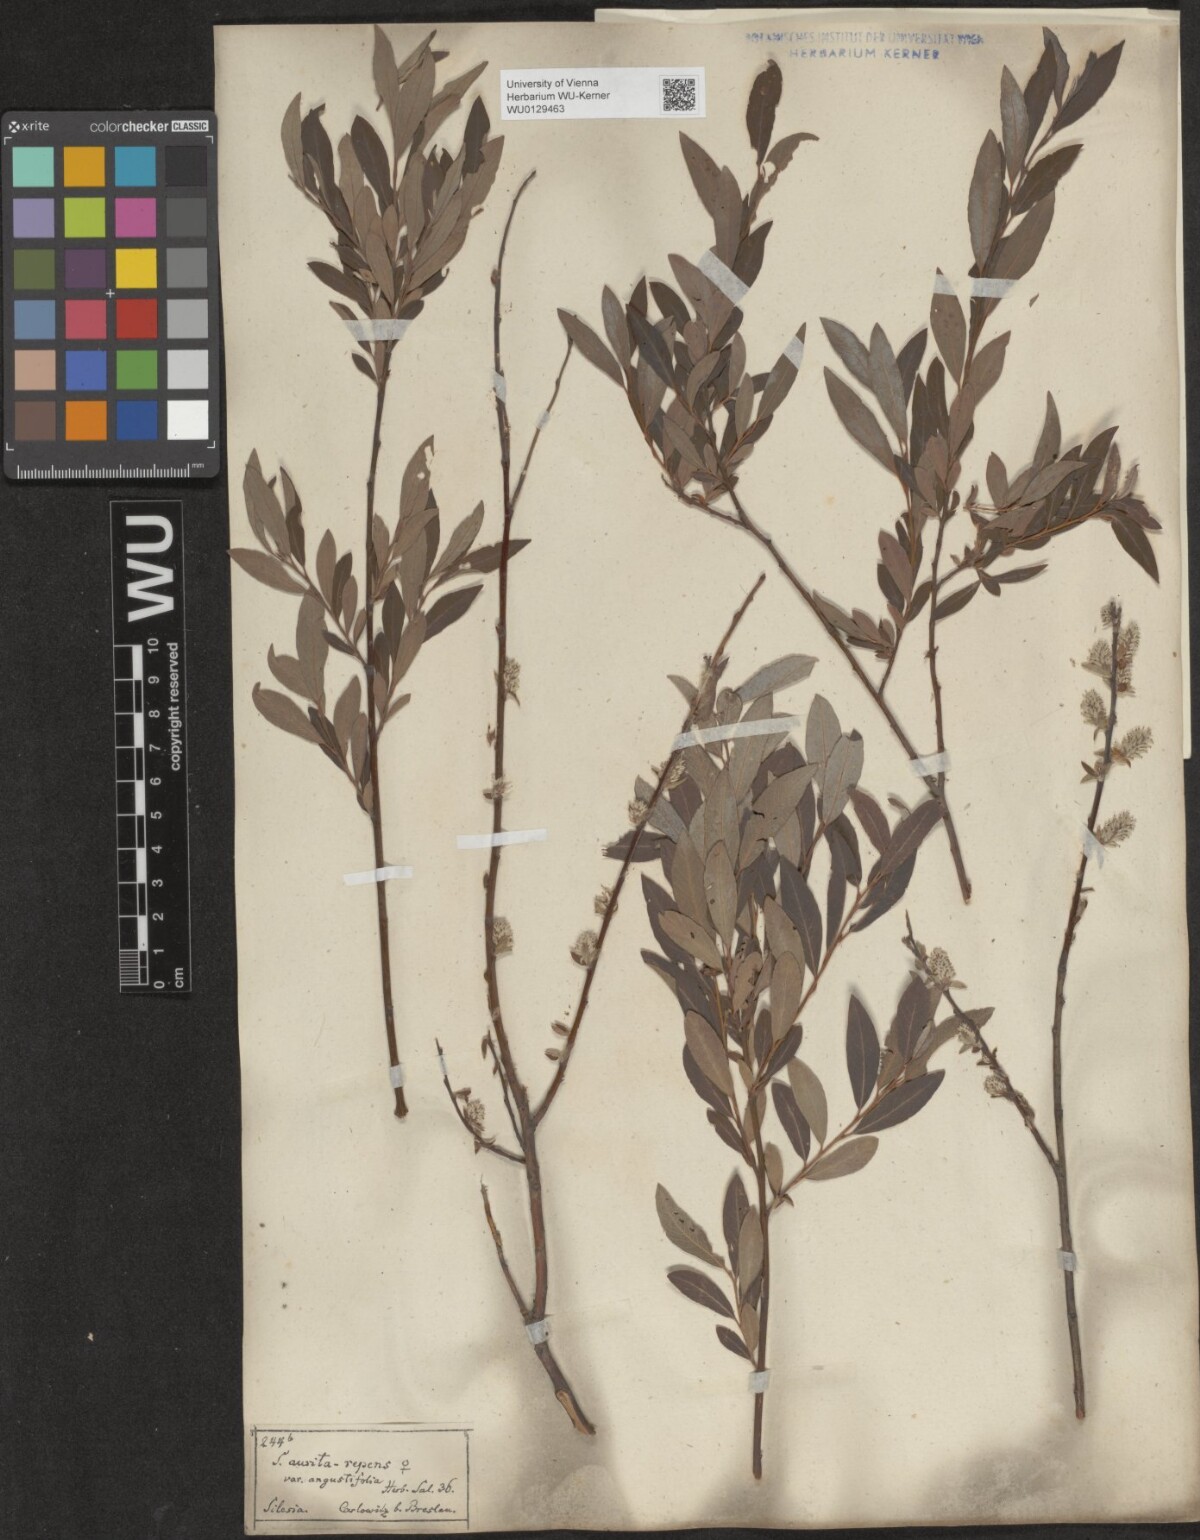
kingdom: Plantae
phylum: Tracheophyta
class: Magnoliopsida
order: Malpighiales
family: Salicaceae
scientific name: Salicaceae
